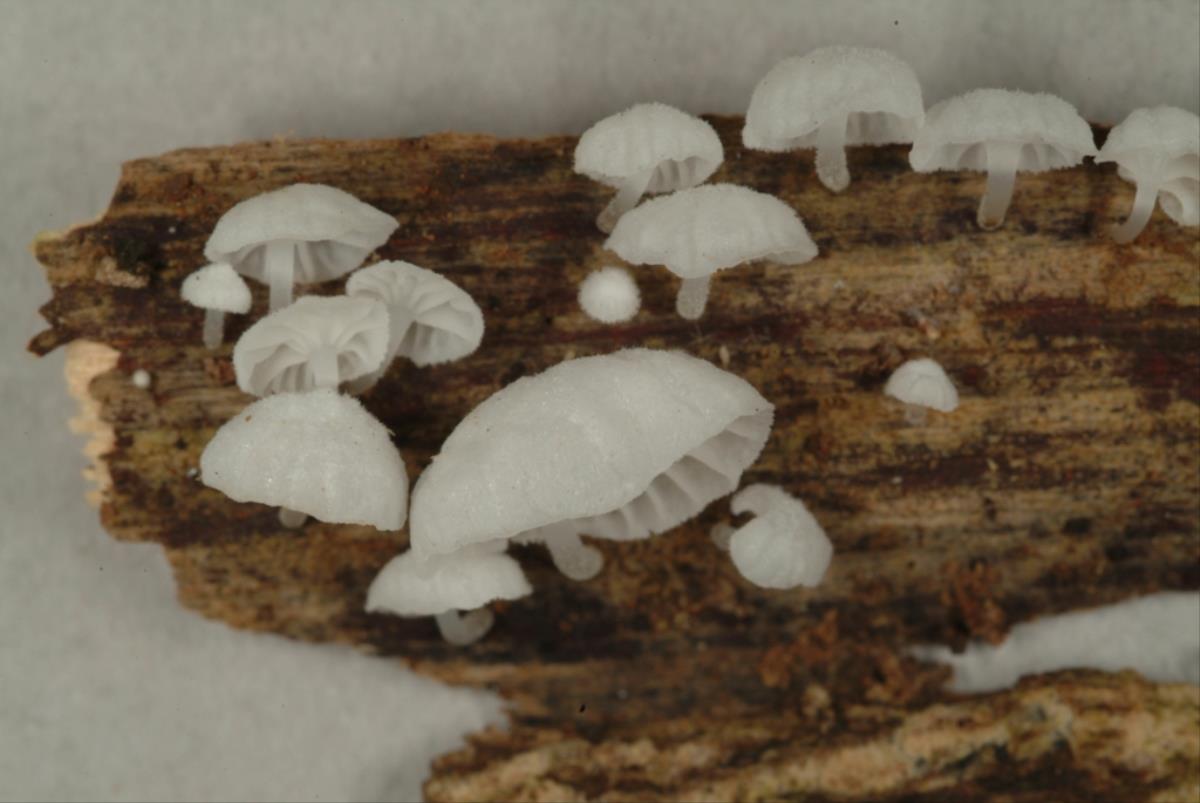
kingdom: Fungi
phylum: Basidiomycota
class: Agaricomycetes
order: Agaricales
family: Physalacriaceae
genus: Gloiocephala
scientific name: Gloiocephala
